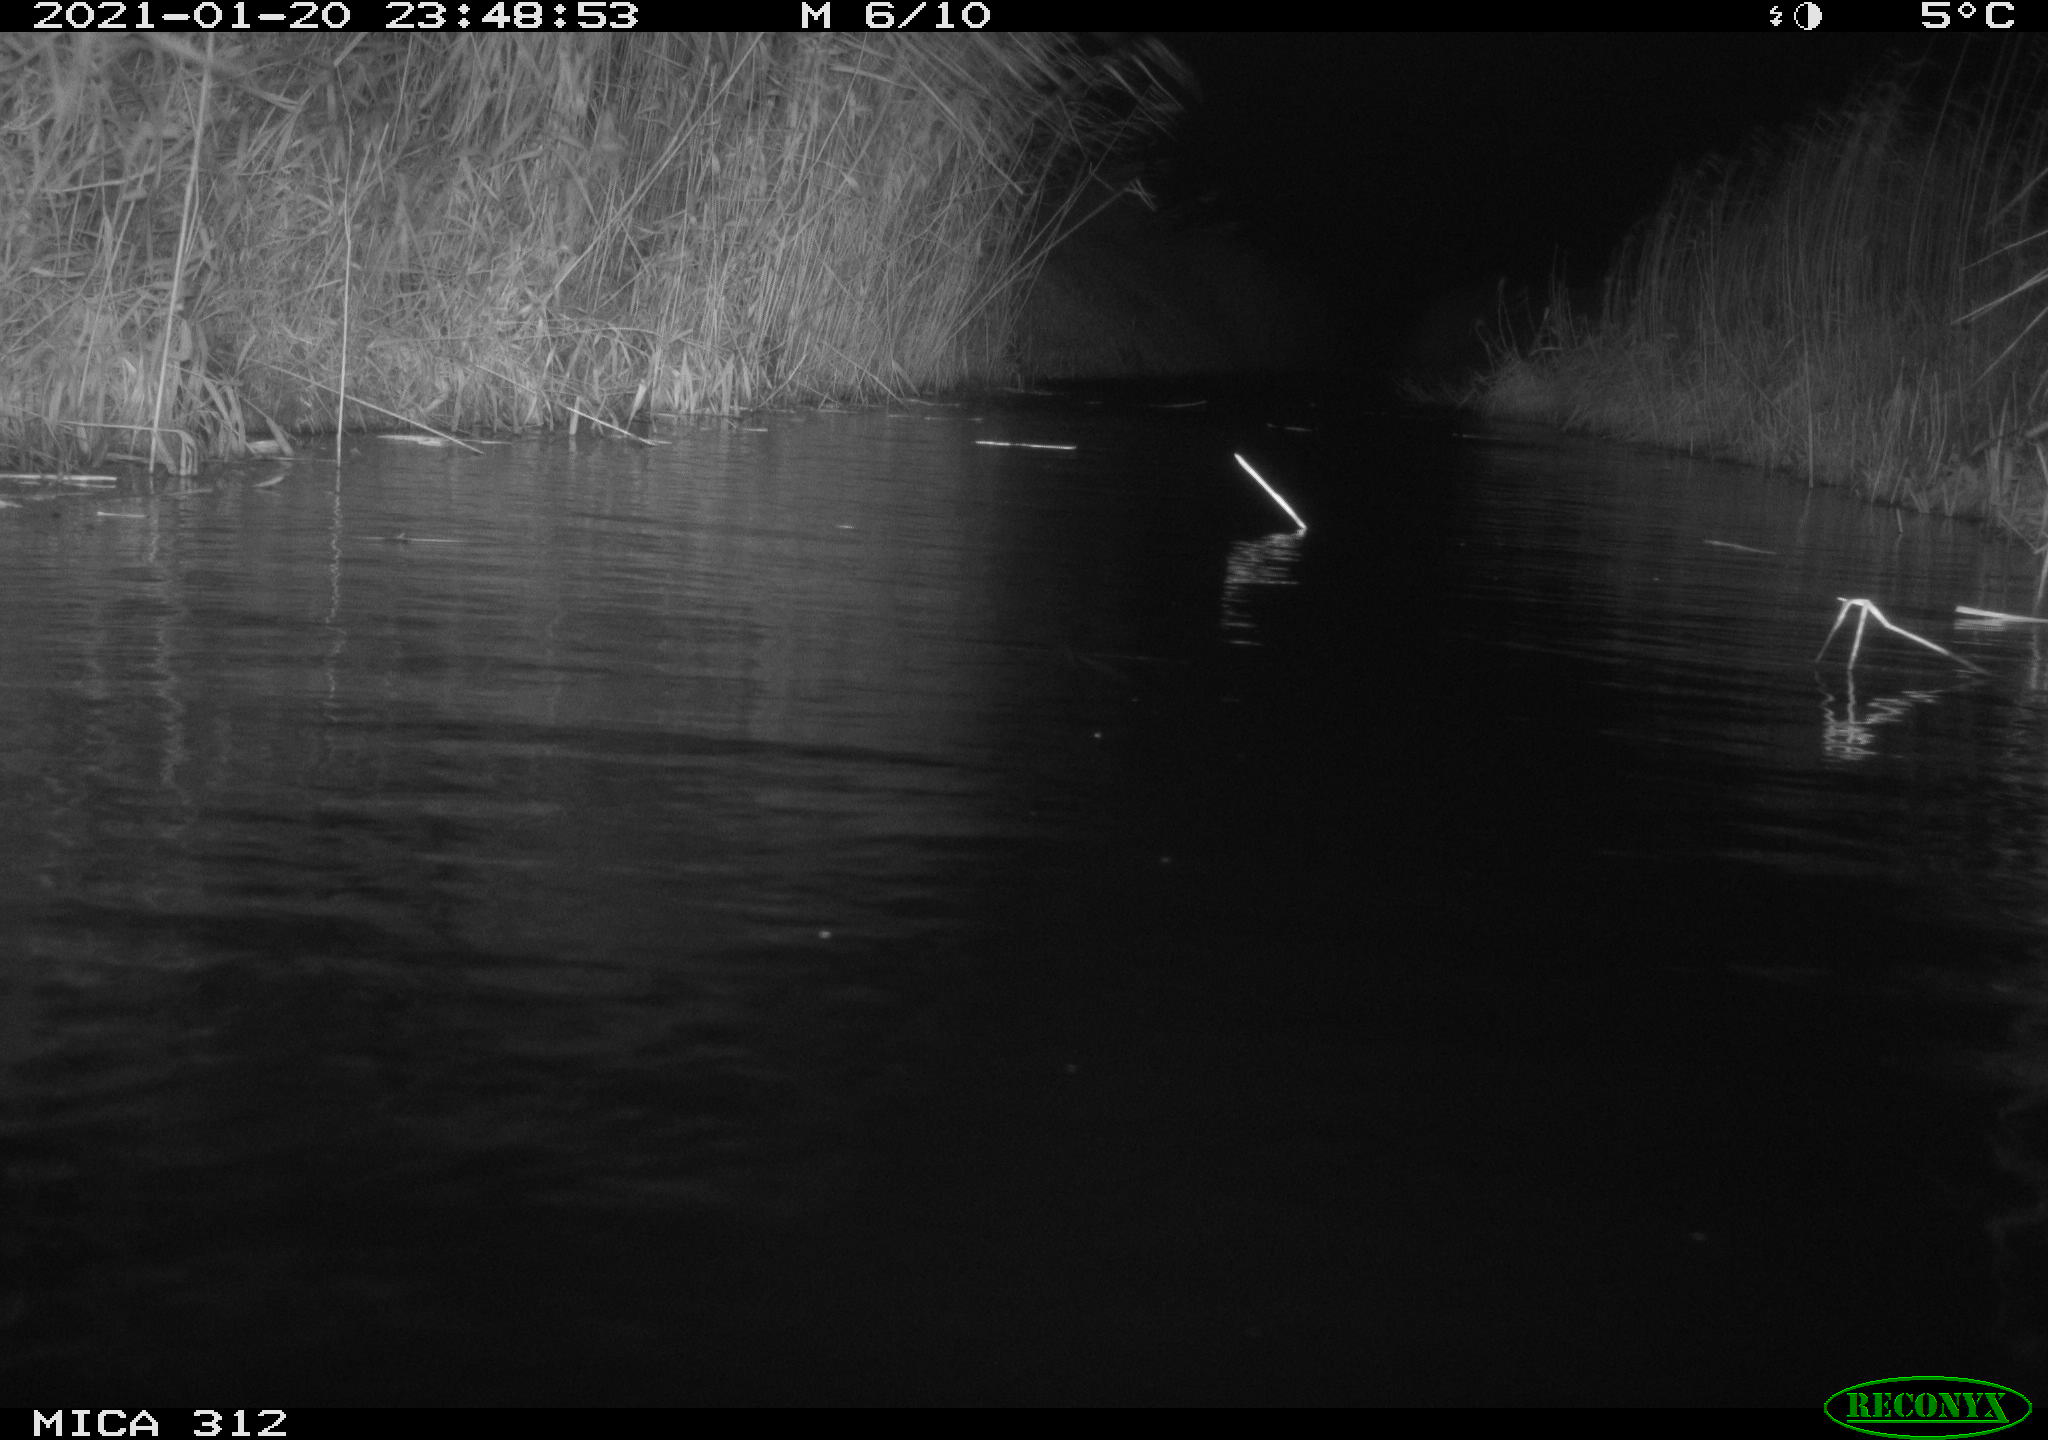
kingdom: Animalia
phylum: Chordata
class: Mammalia
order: Rodentia
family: Muridae
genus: Rattus
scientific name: Rattus norvegicus
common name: Brown rat
